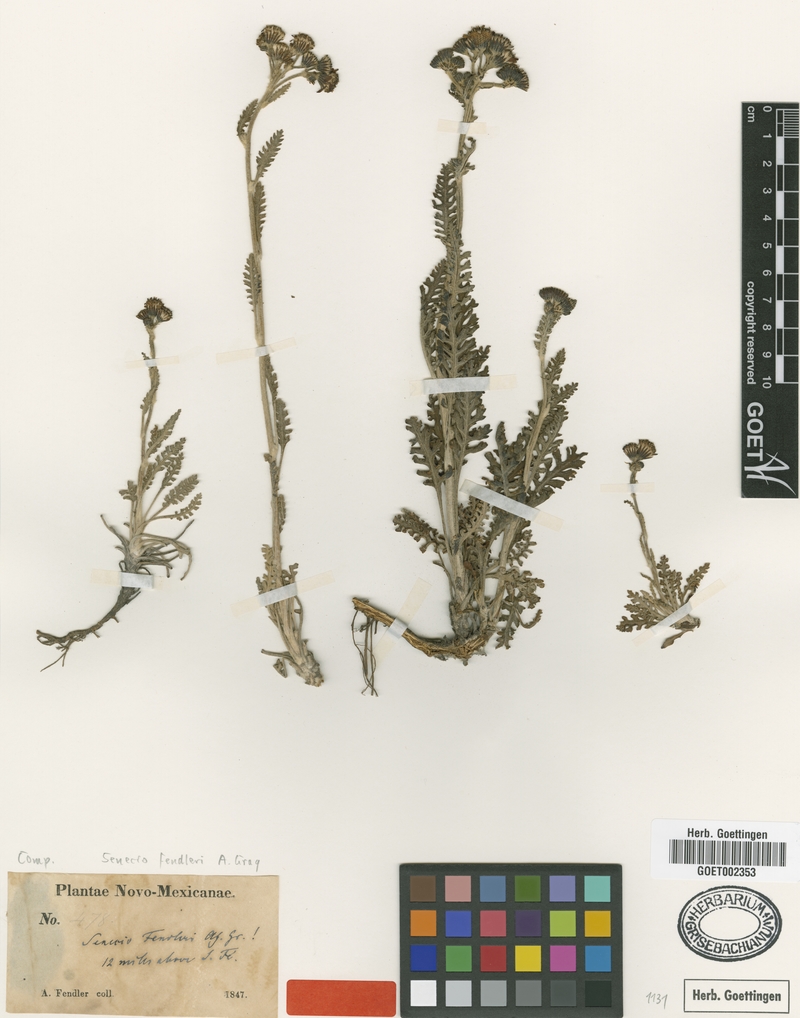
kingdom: Plantae
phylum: Tracheophyta
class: Magnoliopsida
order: Asterales
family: Asteraceae
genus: Packera
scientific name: Packera fendleri
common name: Notch-leaf butterweed
